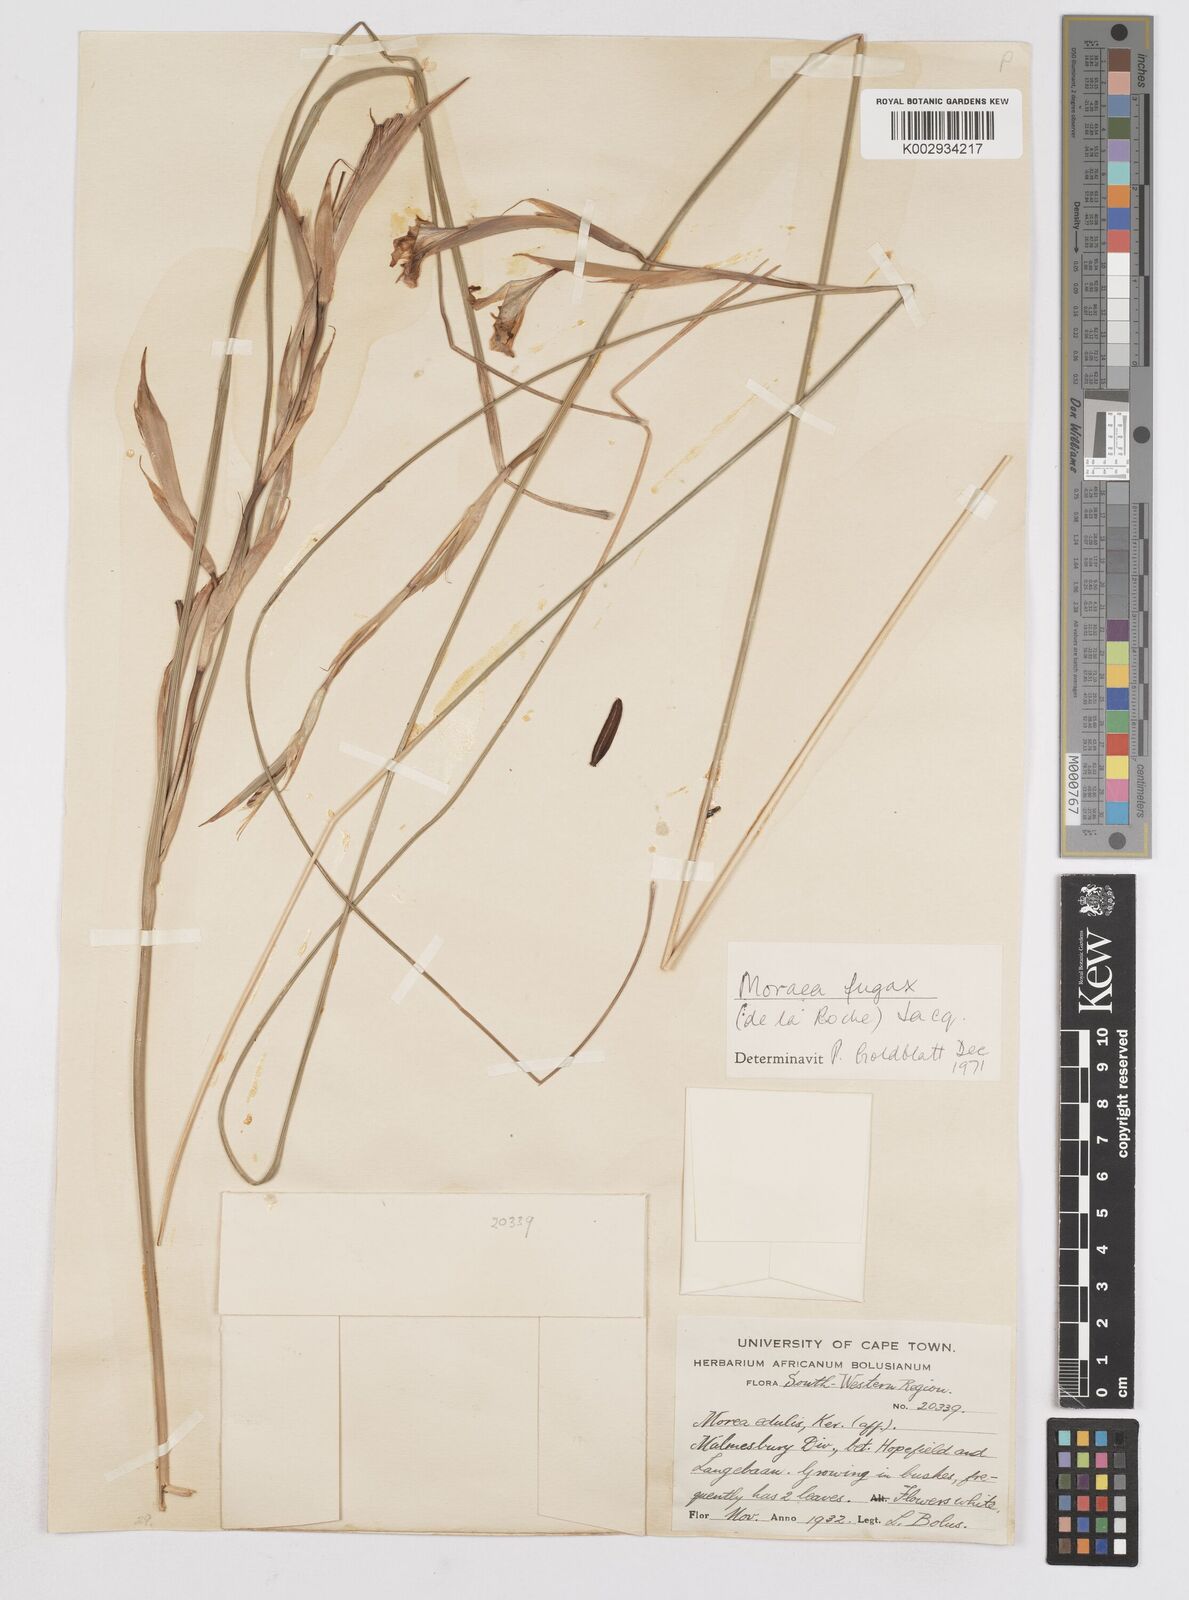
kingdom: Plantae
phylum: Tracheophyta
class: Liliopsida
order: Asparagales
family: Iridaceae
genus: Moraea
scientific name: Moraea fugax
